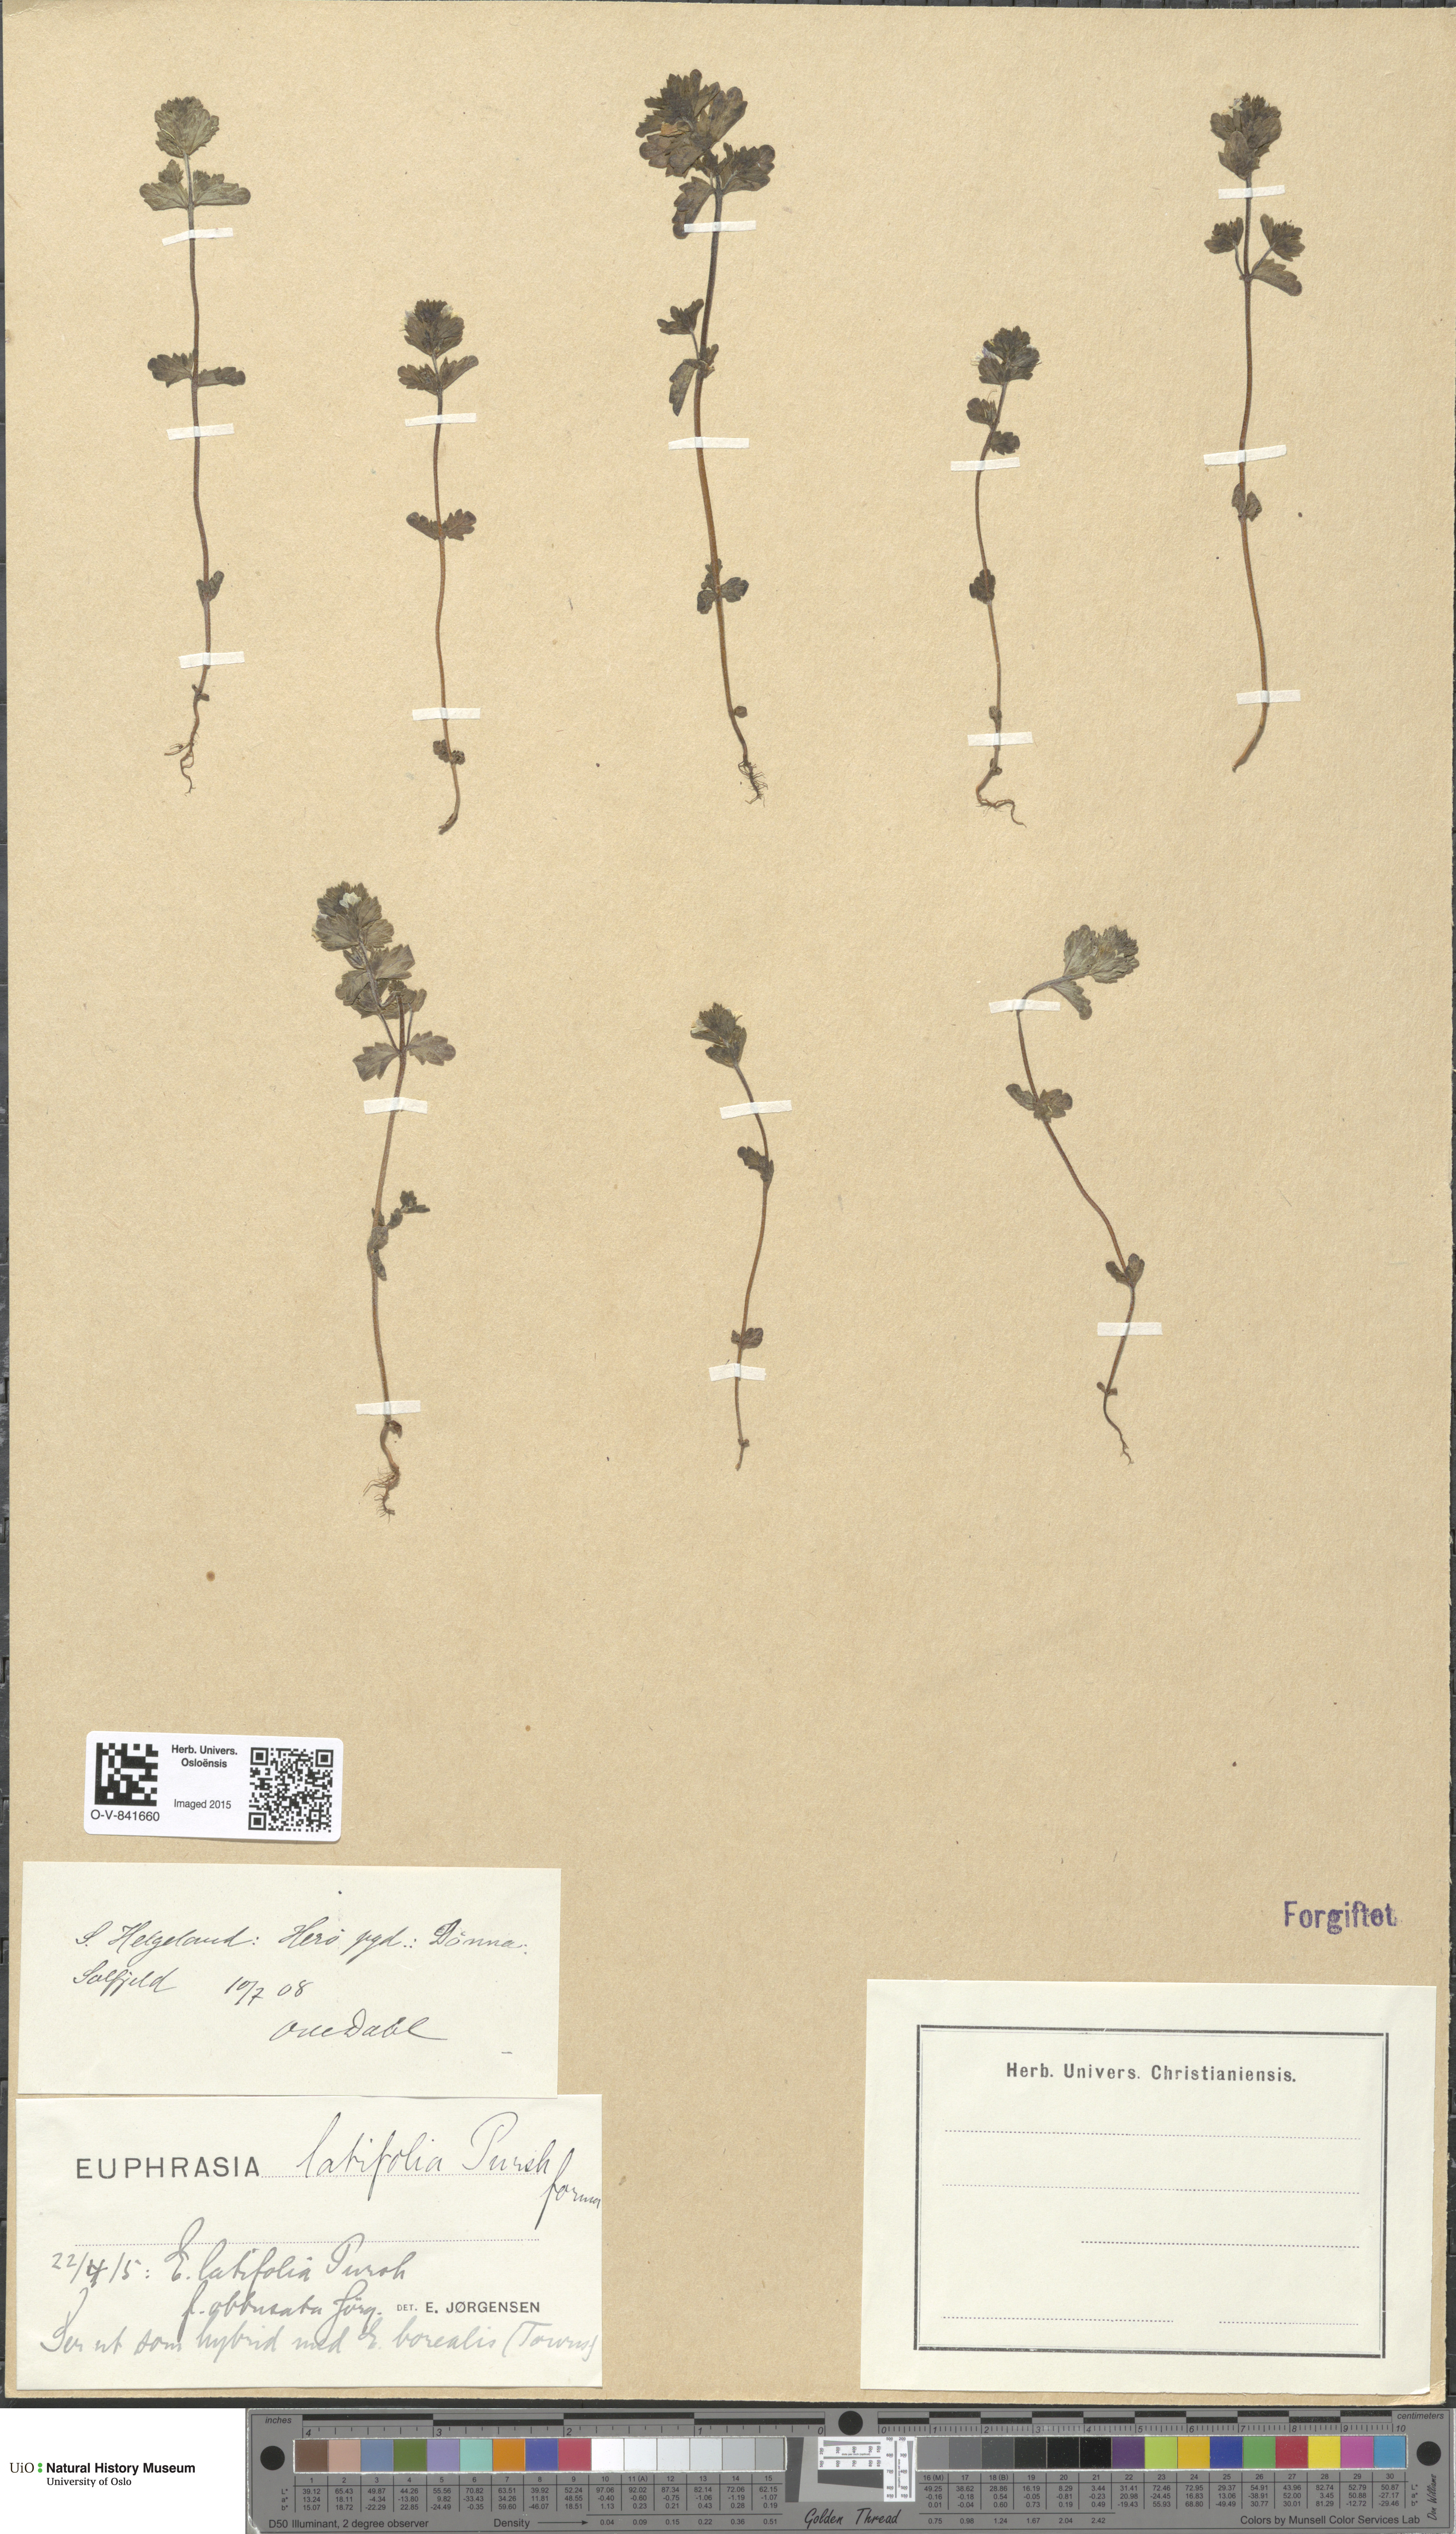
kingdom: Plantae
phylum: Tracheophyta
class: Magnoliopsida
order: Lamiales
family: Orobanchaceae
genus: Euphrasia
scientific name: Euphrasia wettsteinii
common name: Wettstein's eyebright
